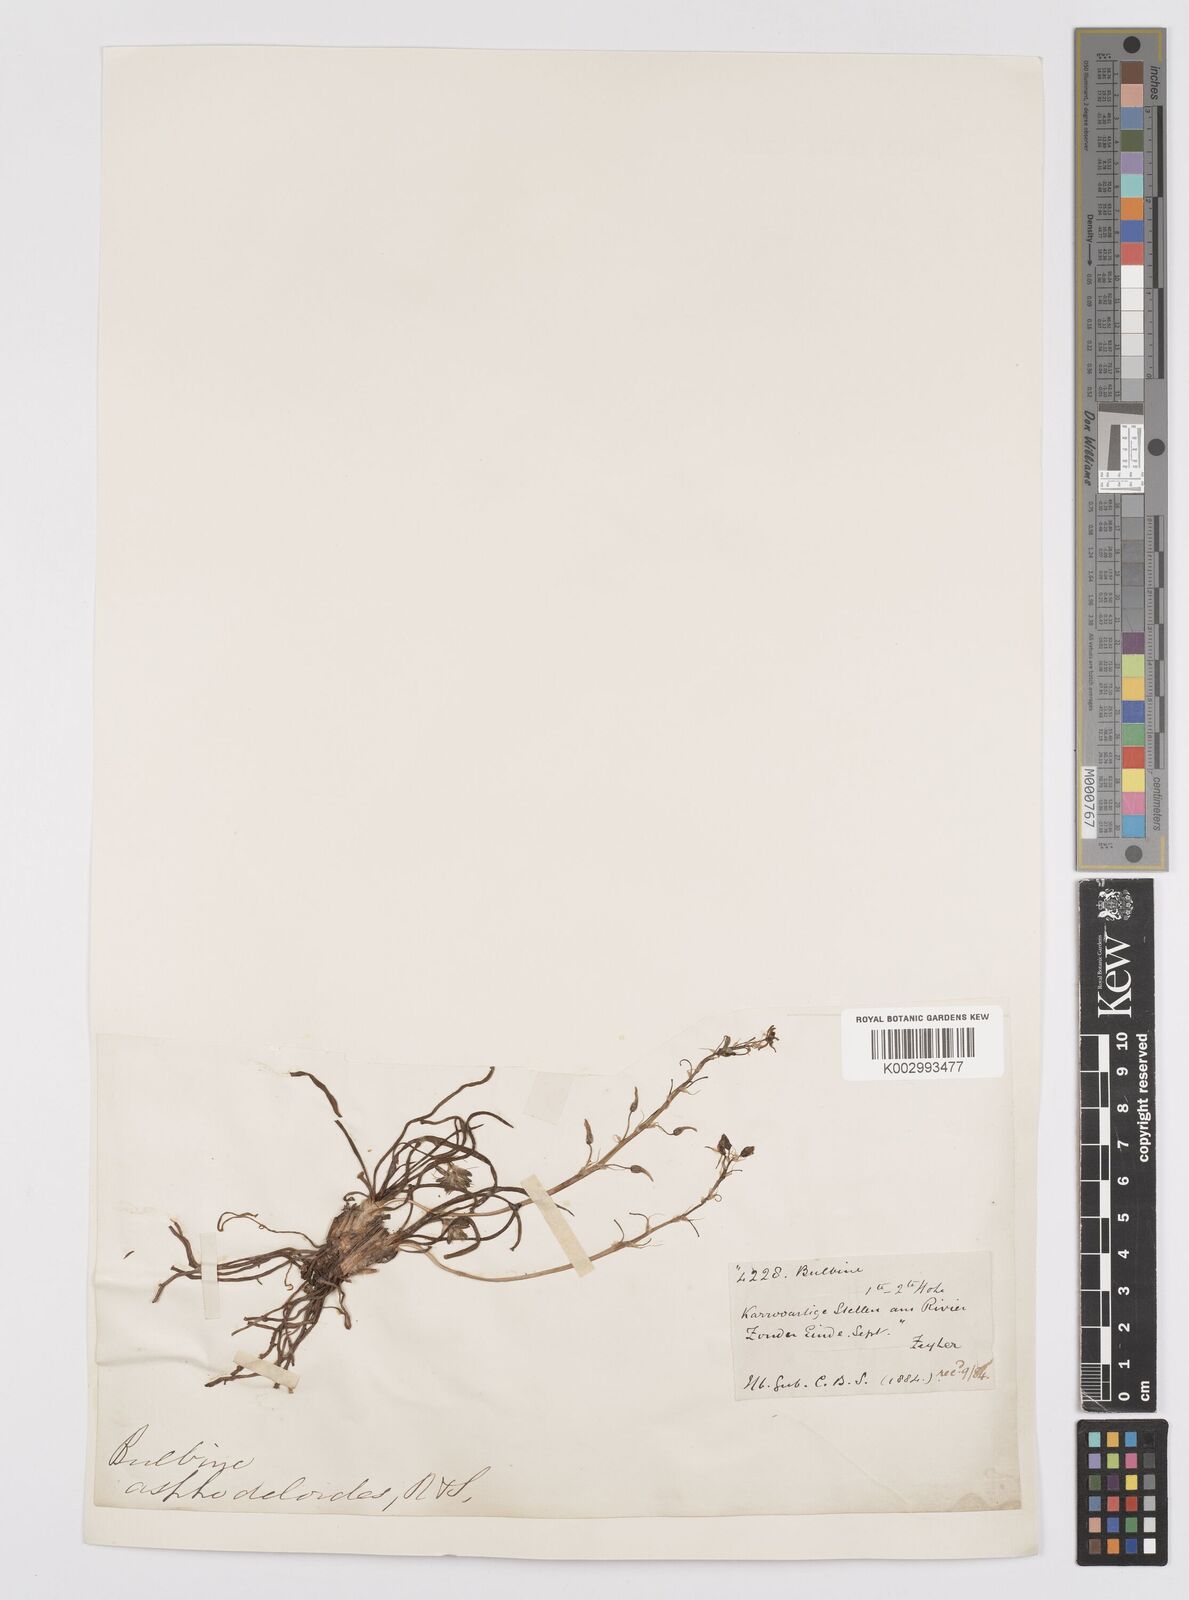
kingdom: Plantae
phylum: Tracheophyta
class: Liliopsida
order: Asparagales
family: Asphodelaceae
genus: Bulbine
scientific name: Bulbine lagopus
